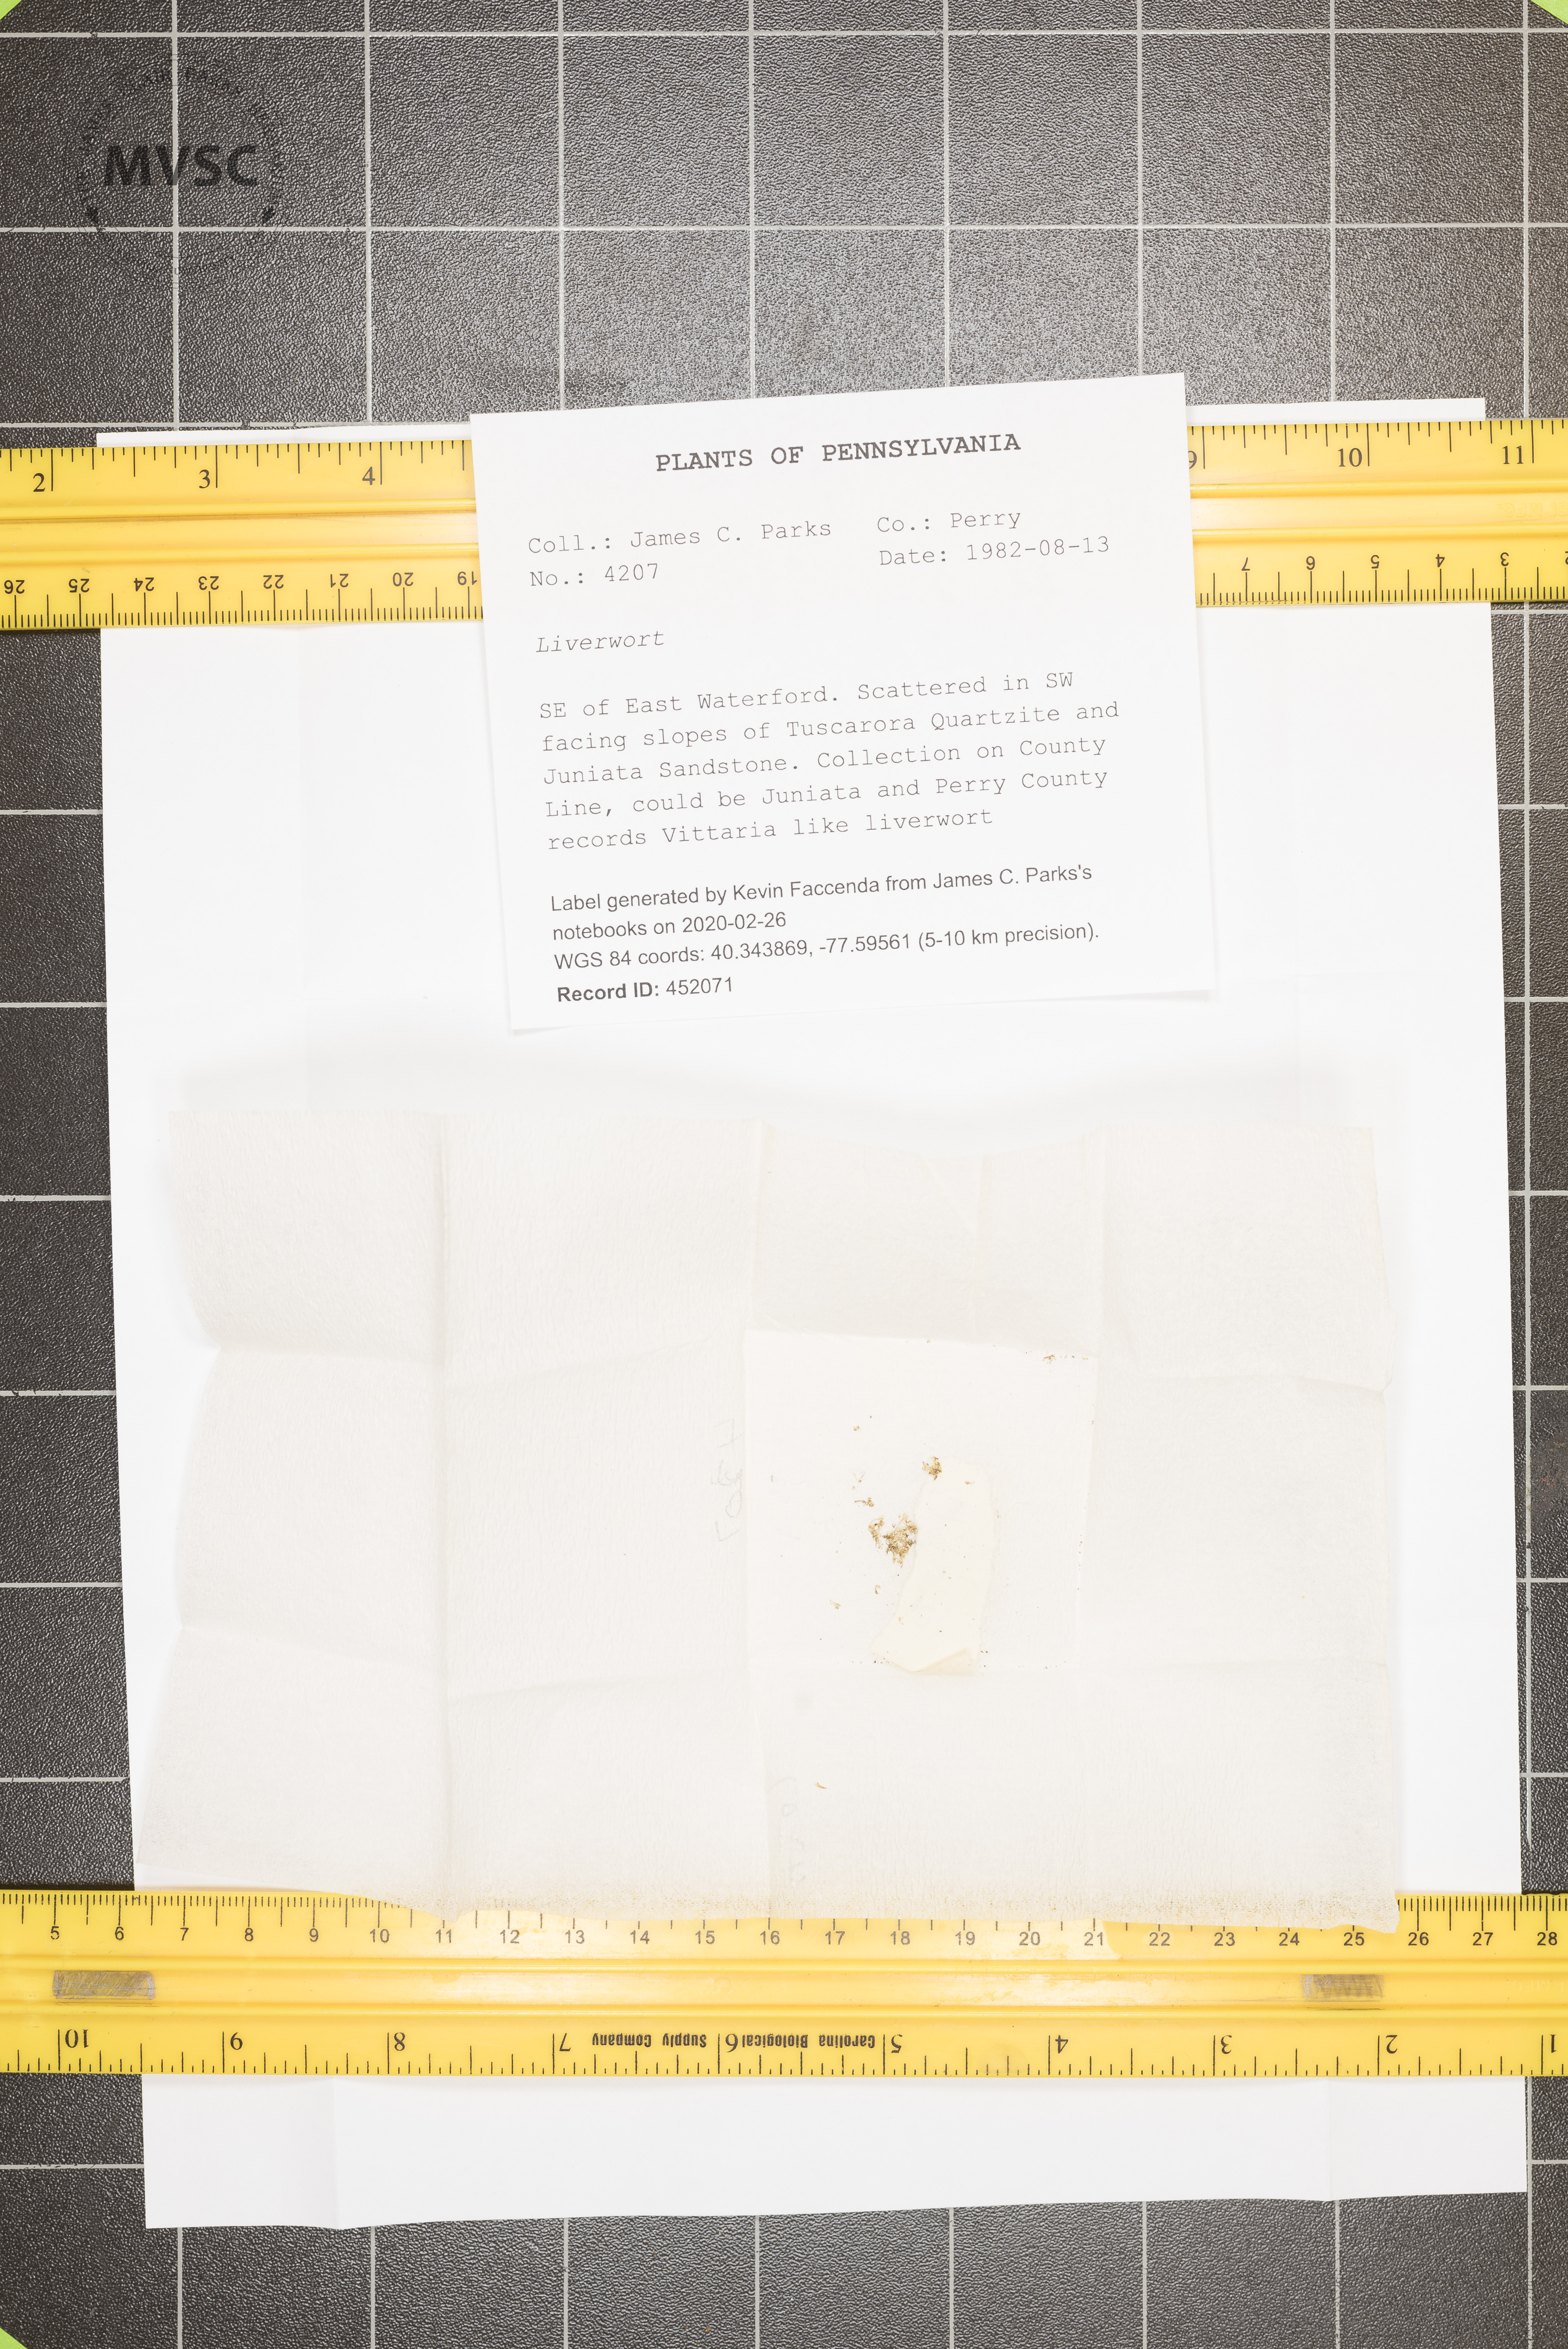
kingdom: Plantae
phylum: Marchantiophyta
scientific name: Marchantiophyta
